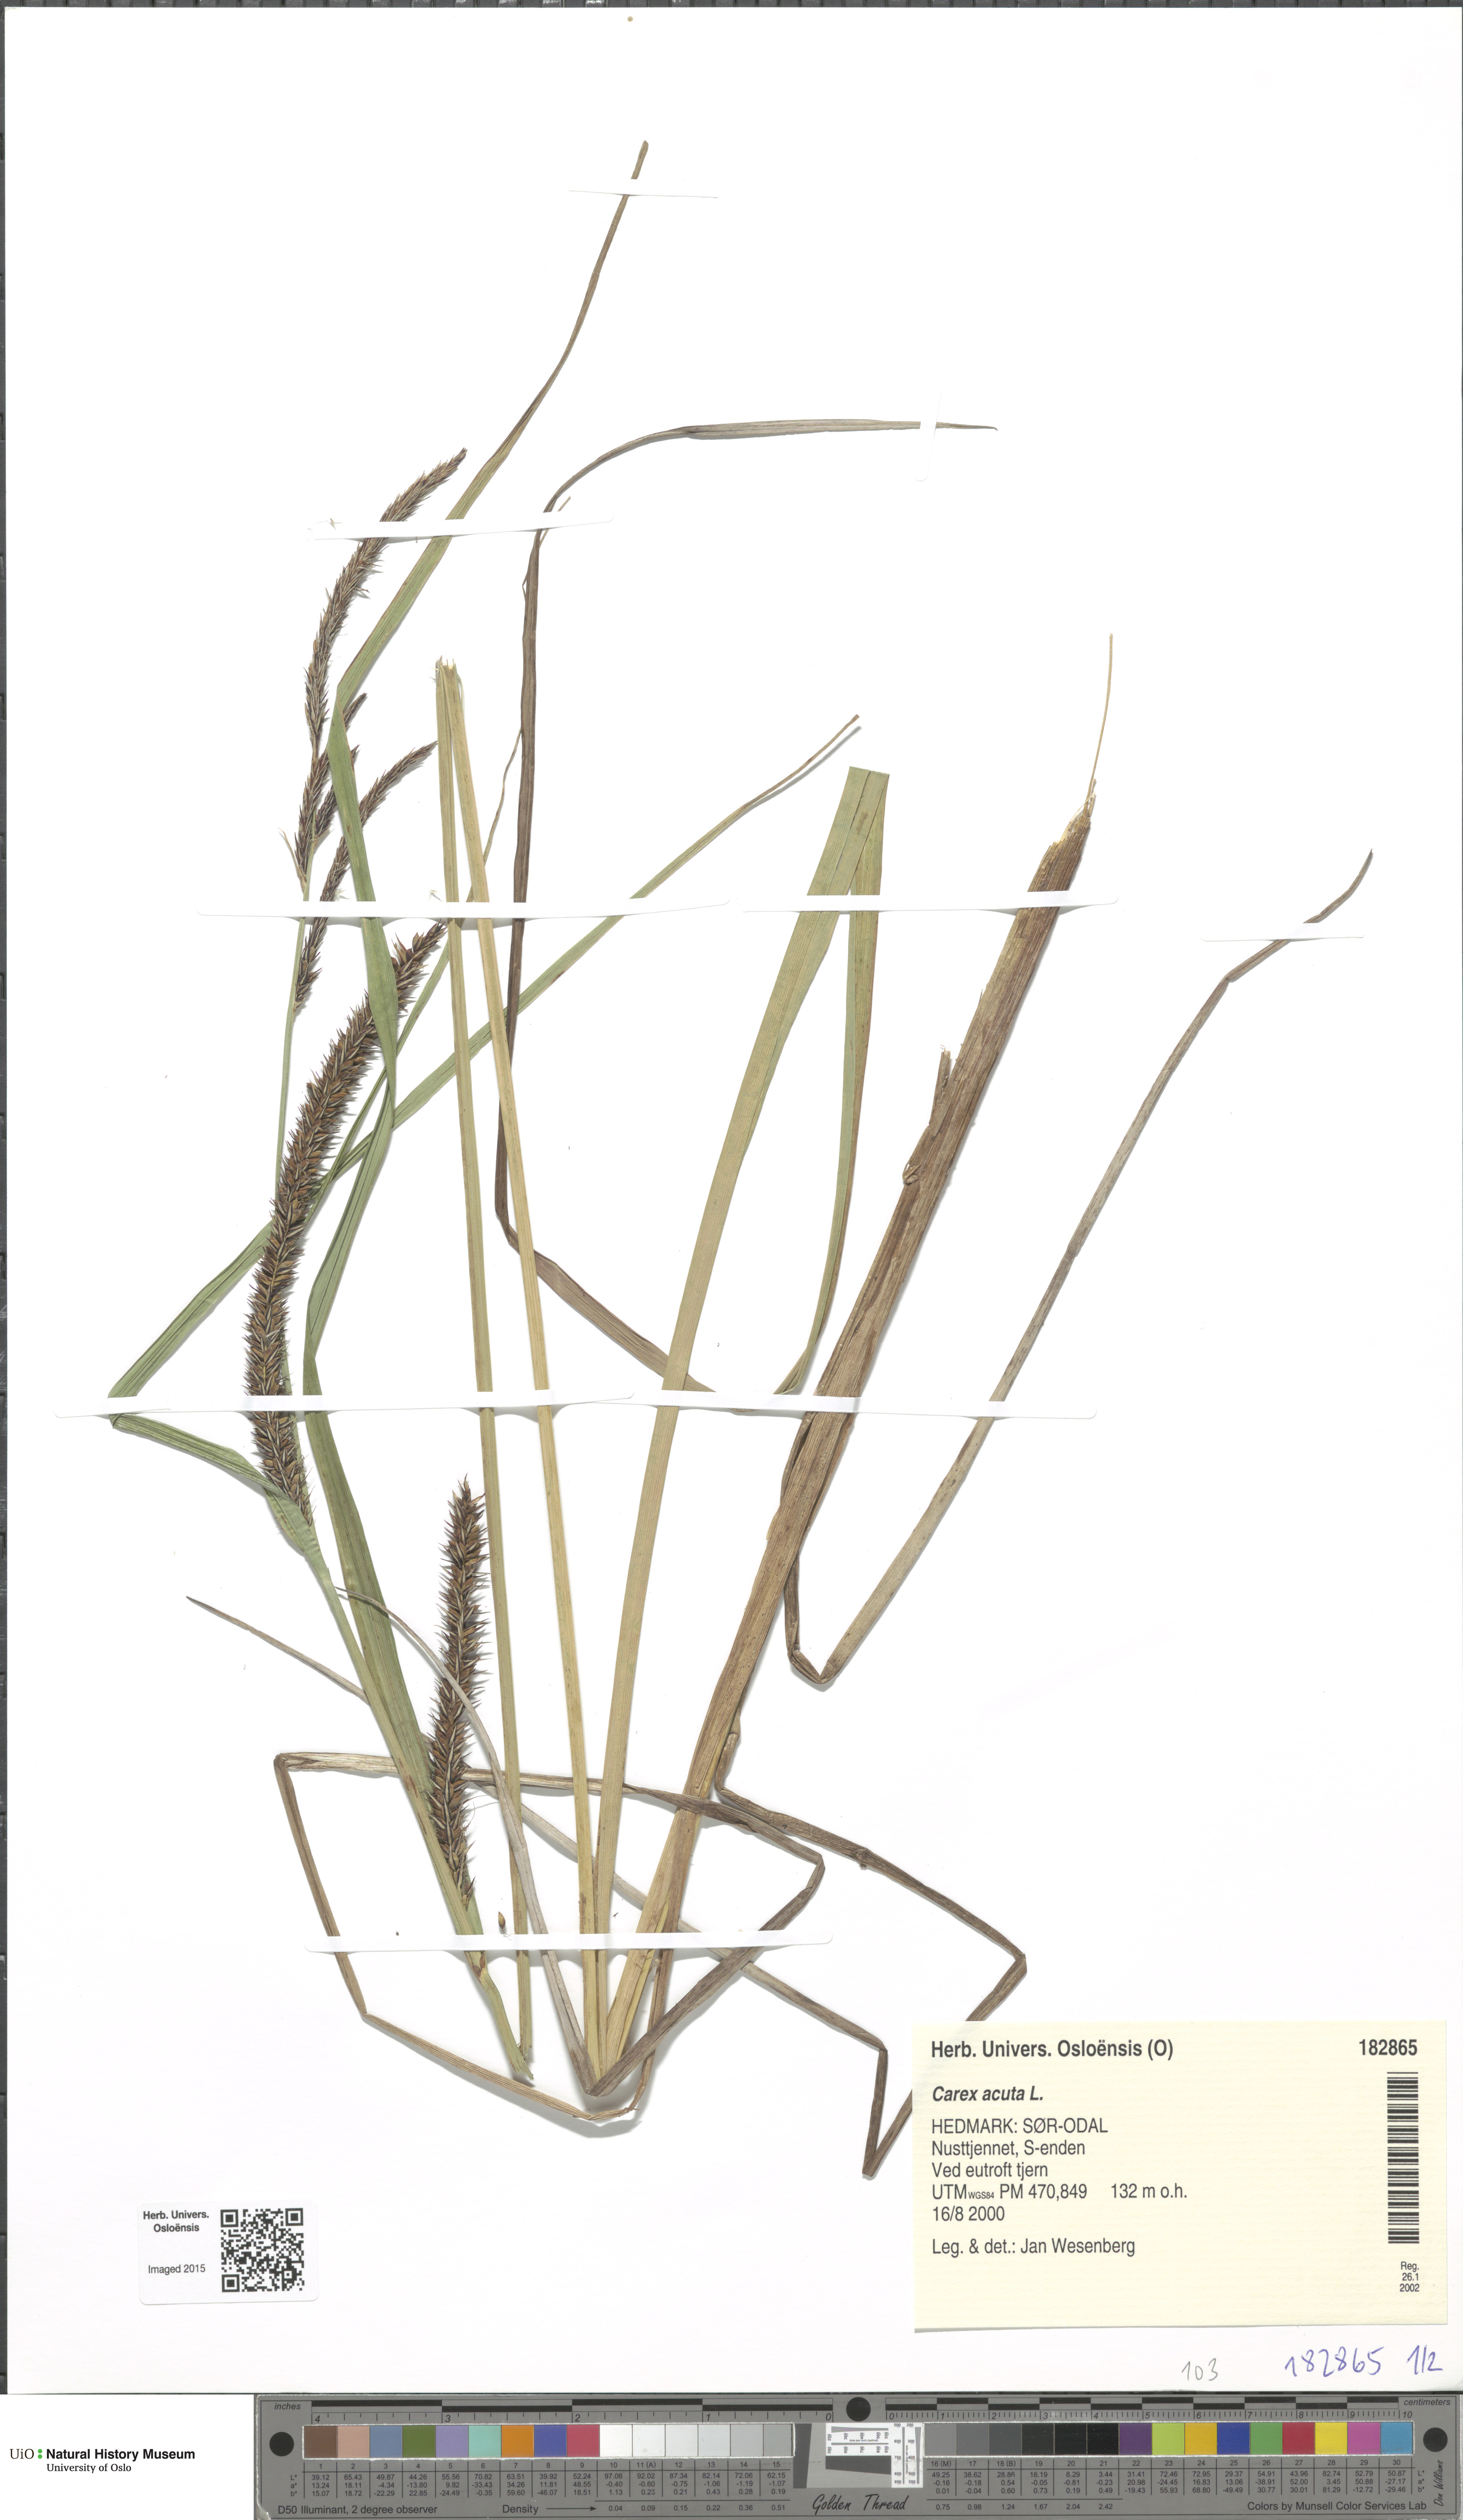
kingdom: Plantae
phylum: Tracheophyta
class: Liliopsida
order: Poales
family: Cyperaceae
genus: Carex
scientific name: Carex acuta
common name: Slender tufted-sedge
